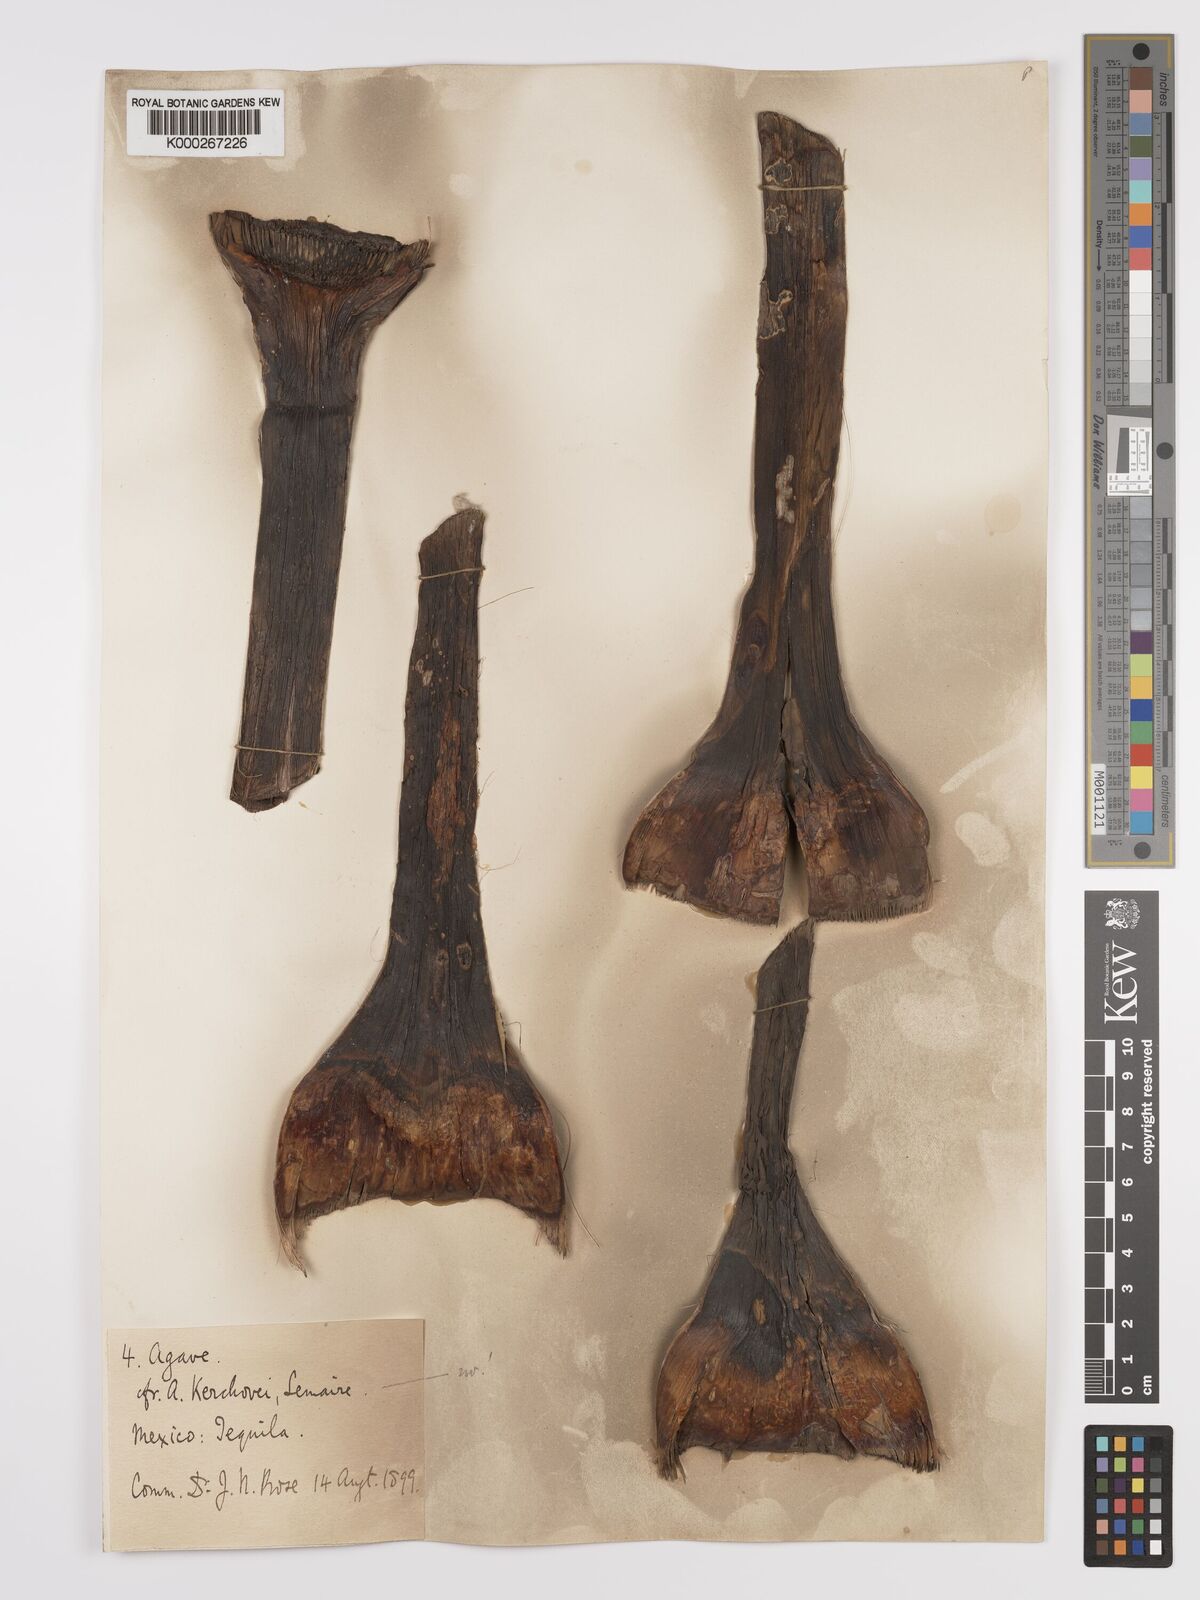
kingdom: Plantae
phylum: Tracheophyta
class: Liliopsida
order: Asparagales
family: Asparagaceae
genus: Agave
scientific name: Agave kerchovei
